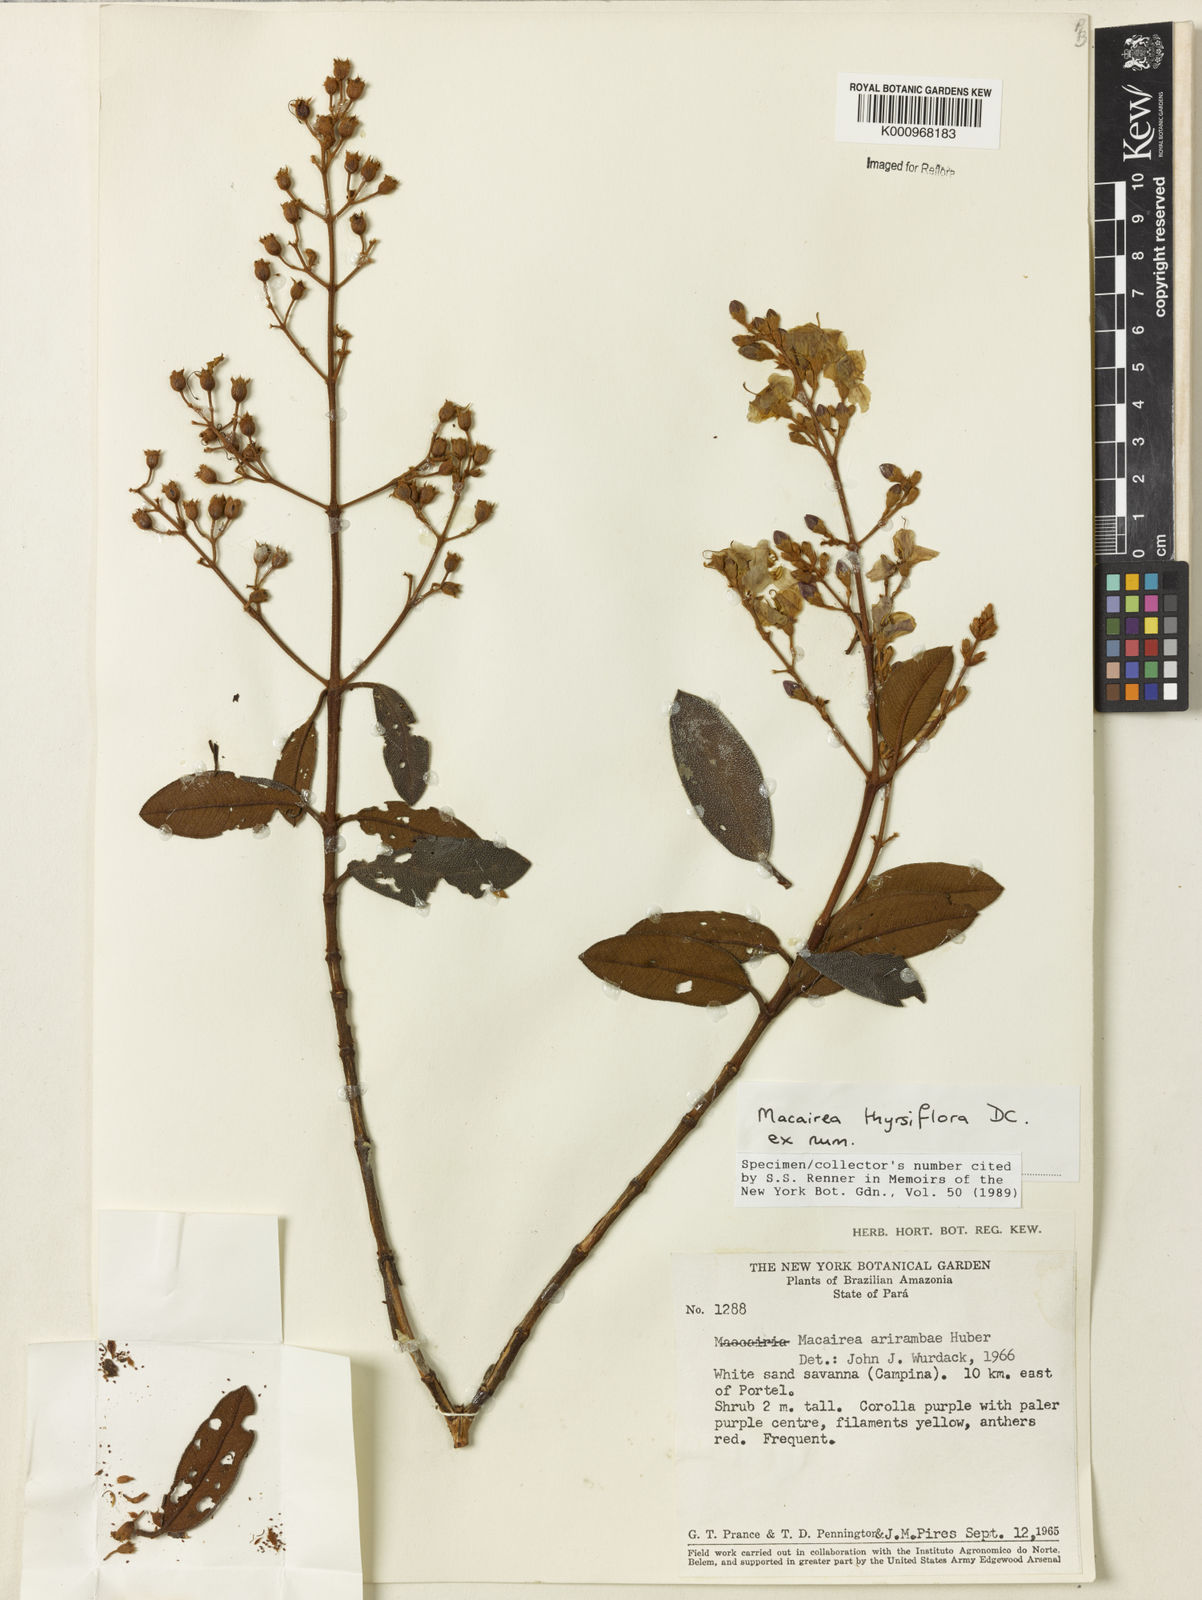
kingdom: Plantae
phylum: Tracheophyta
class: Magnoliopsida
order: Myrtales
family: Melastomataceae
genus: Macairea
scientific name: Macairea thyrsiflora
